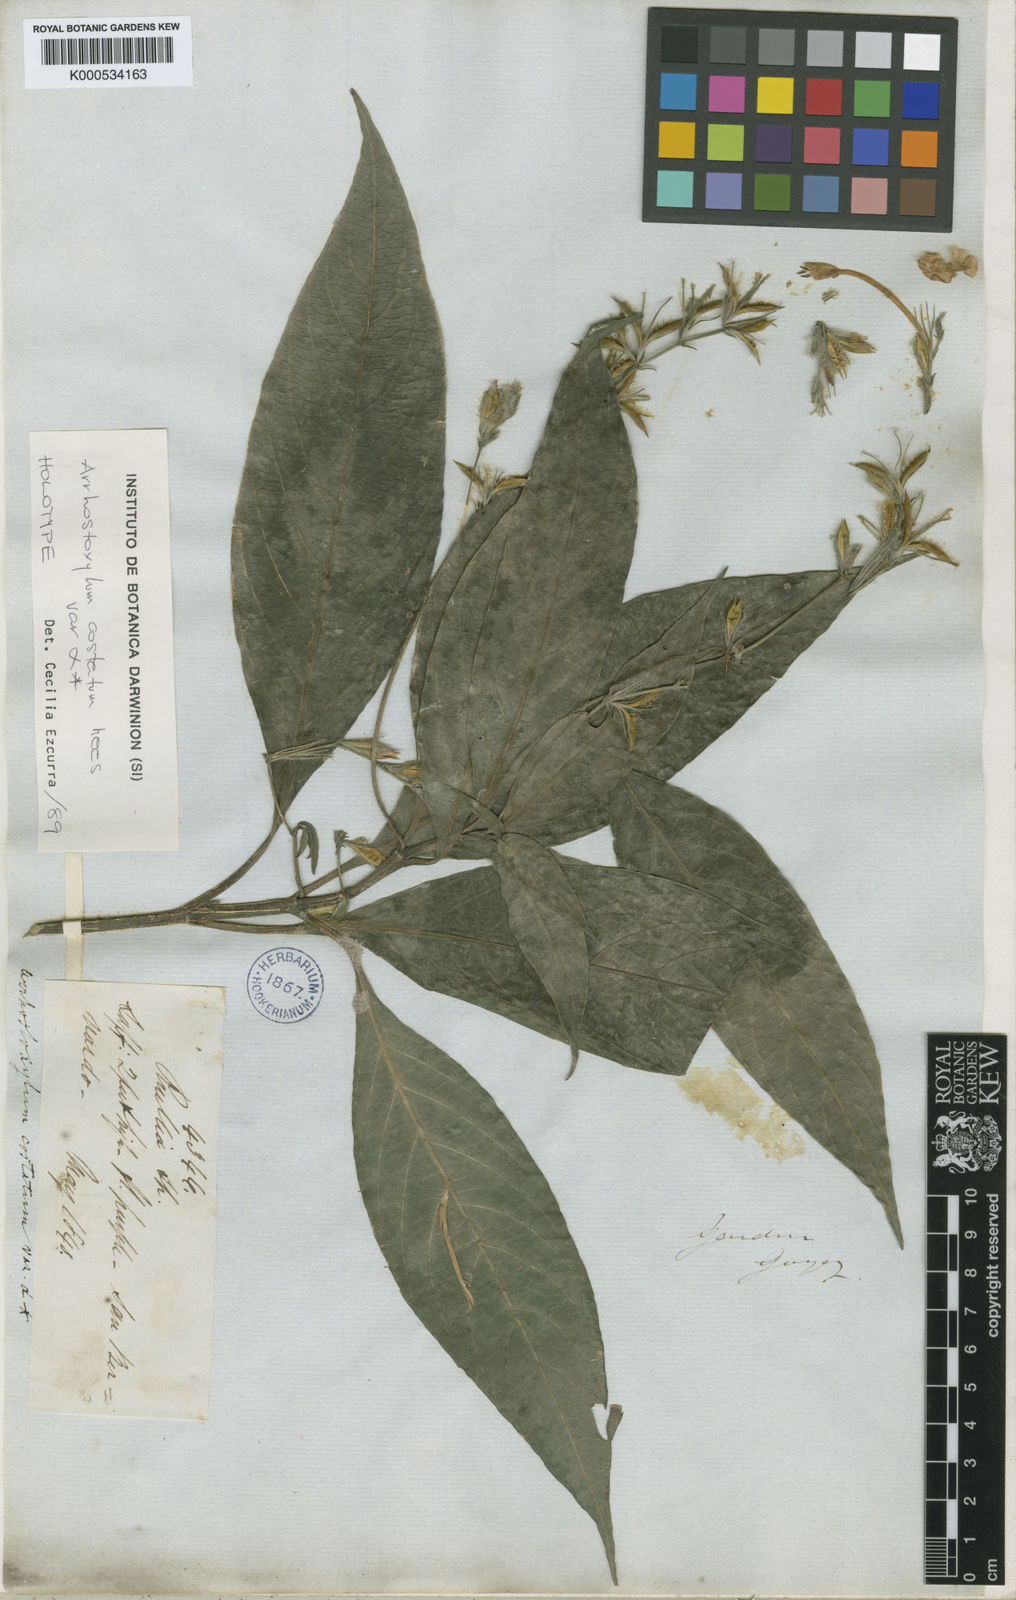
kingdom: Plantae
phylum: Tracheophyta
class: Magnoliopsida
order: Lamiales
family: Acanthaceae
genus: Ruellia
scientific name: Ruellia
